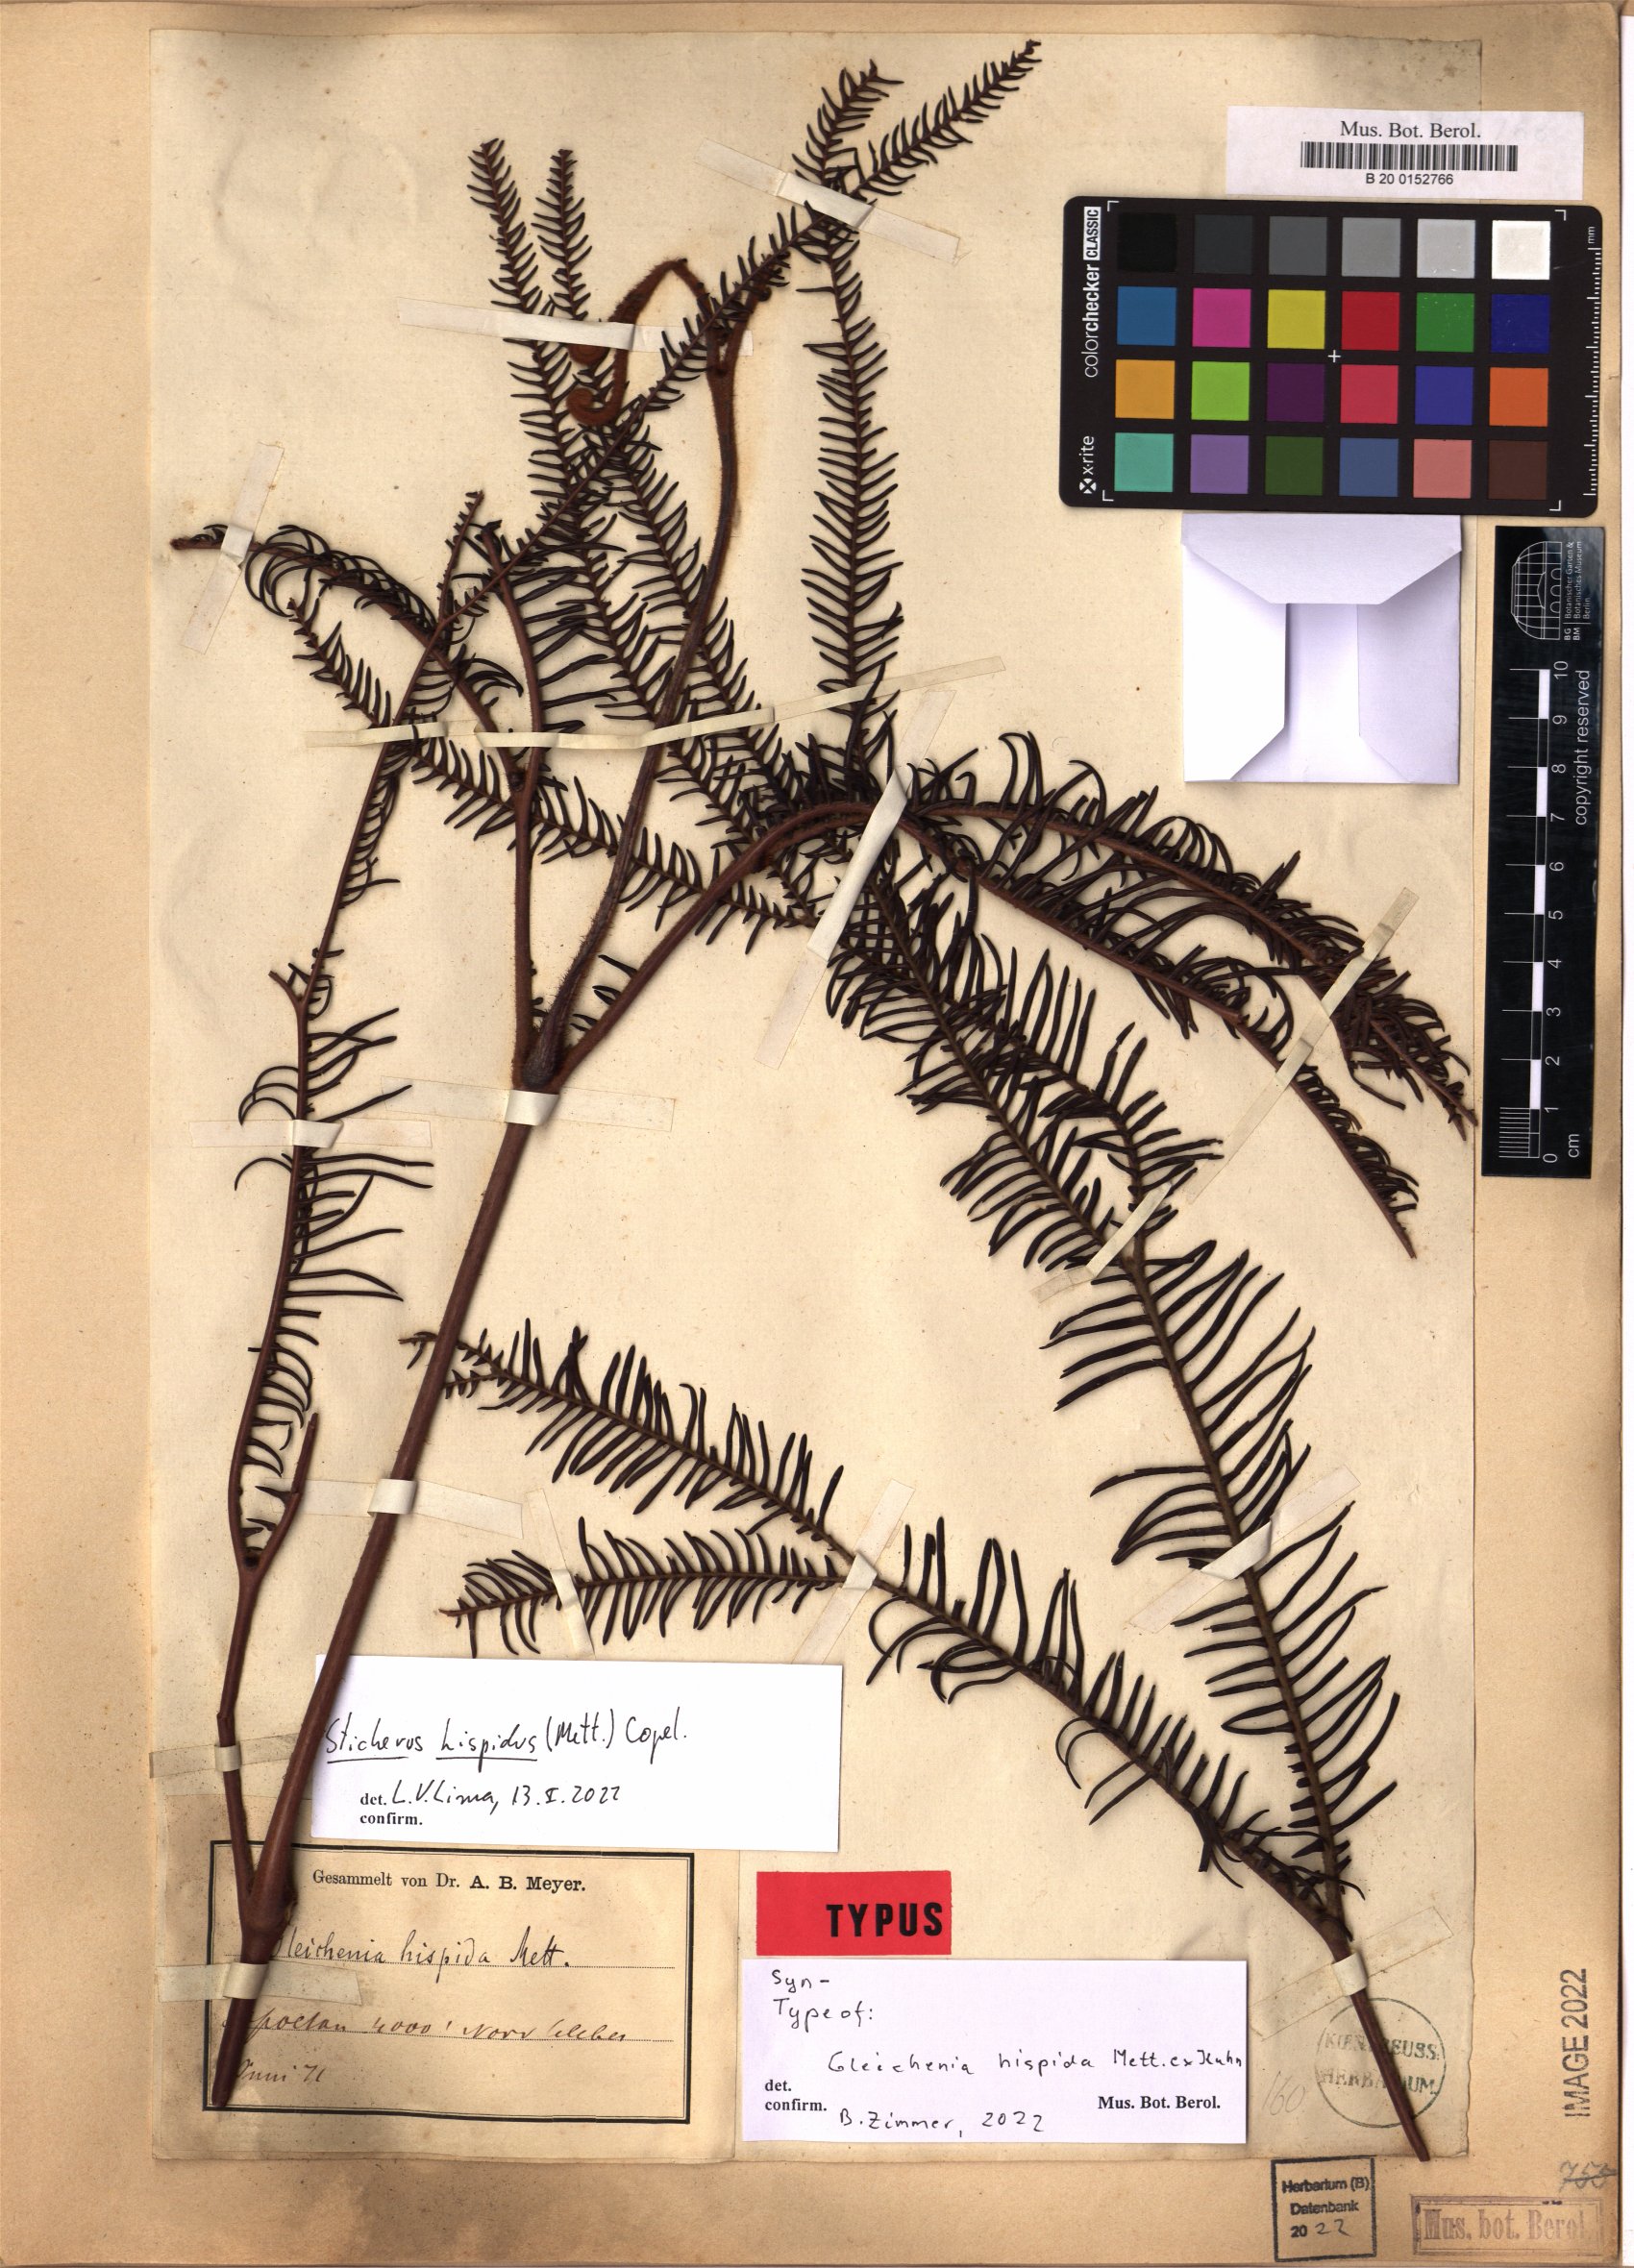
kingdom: Plantae
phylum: Tracheophyta
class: Polypodiopsida
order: Gleicheniales
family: Gleicheniaceae
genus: Sticherus
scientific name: Sticherus hispidus
